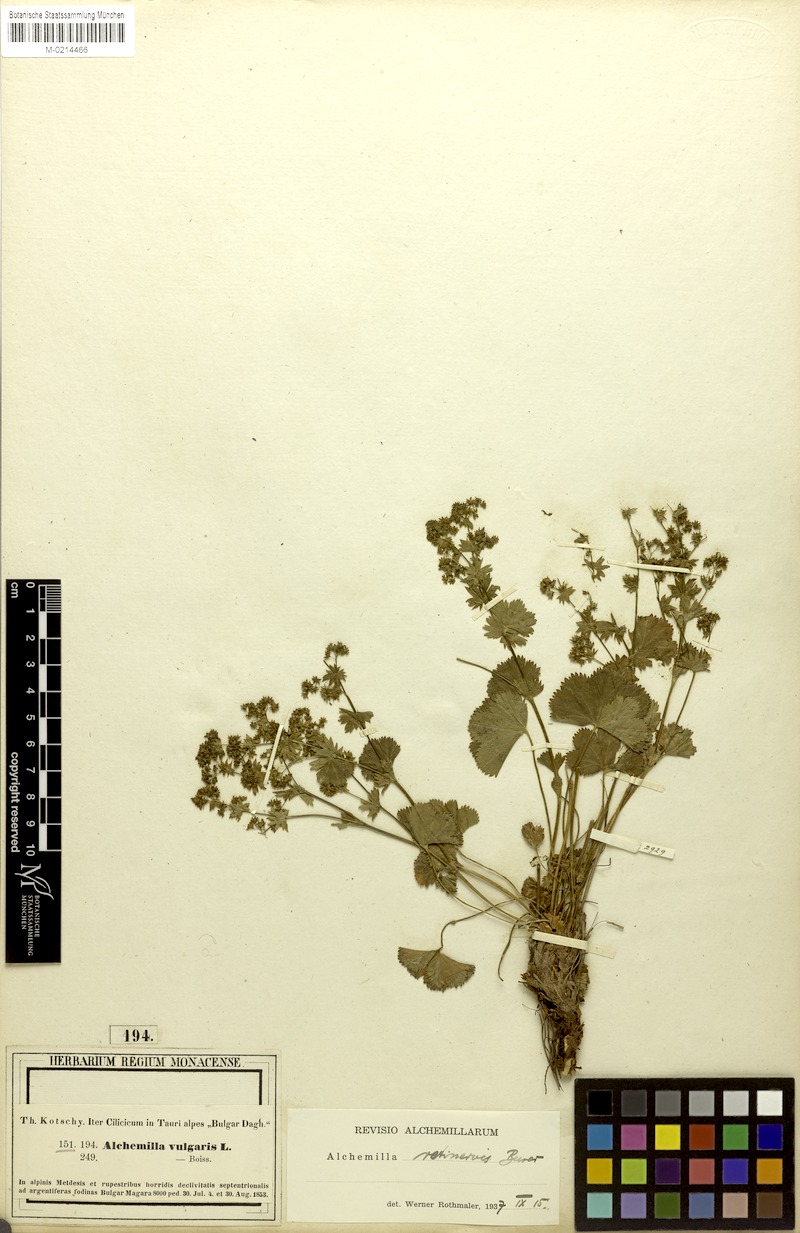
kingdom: Plantae
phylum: Tracheophyta
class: Magnoliopsida
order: Rosales
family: Rosaceae
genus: Alchemilla
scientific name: Alchemilla retinervis
